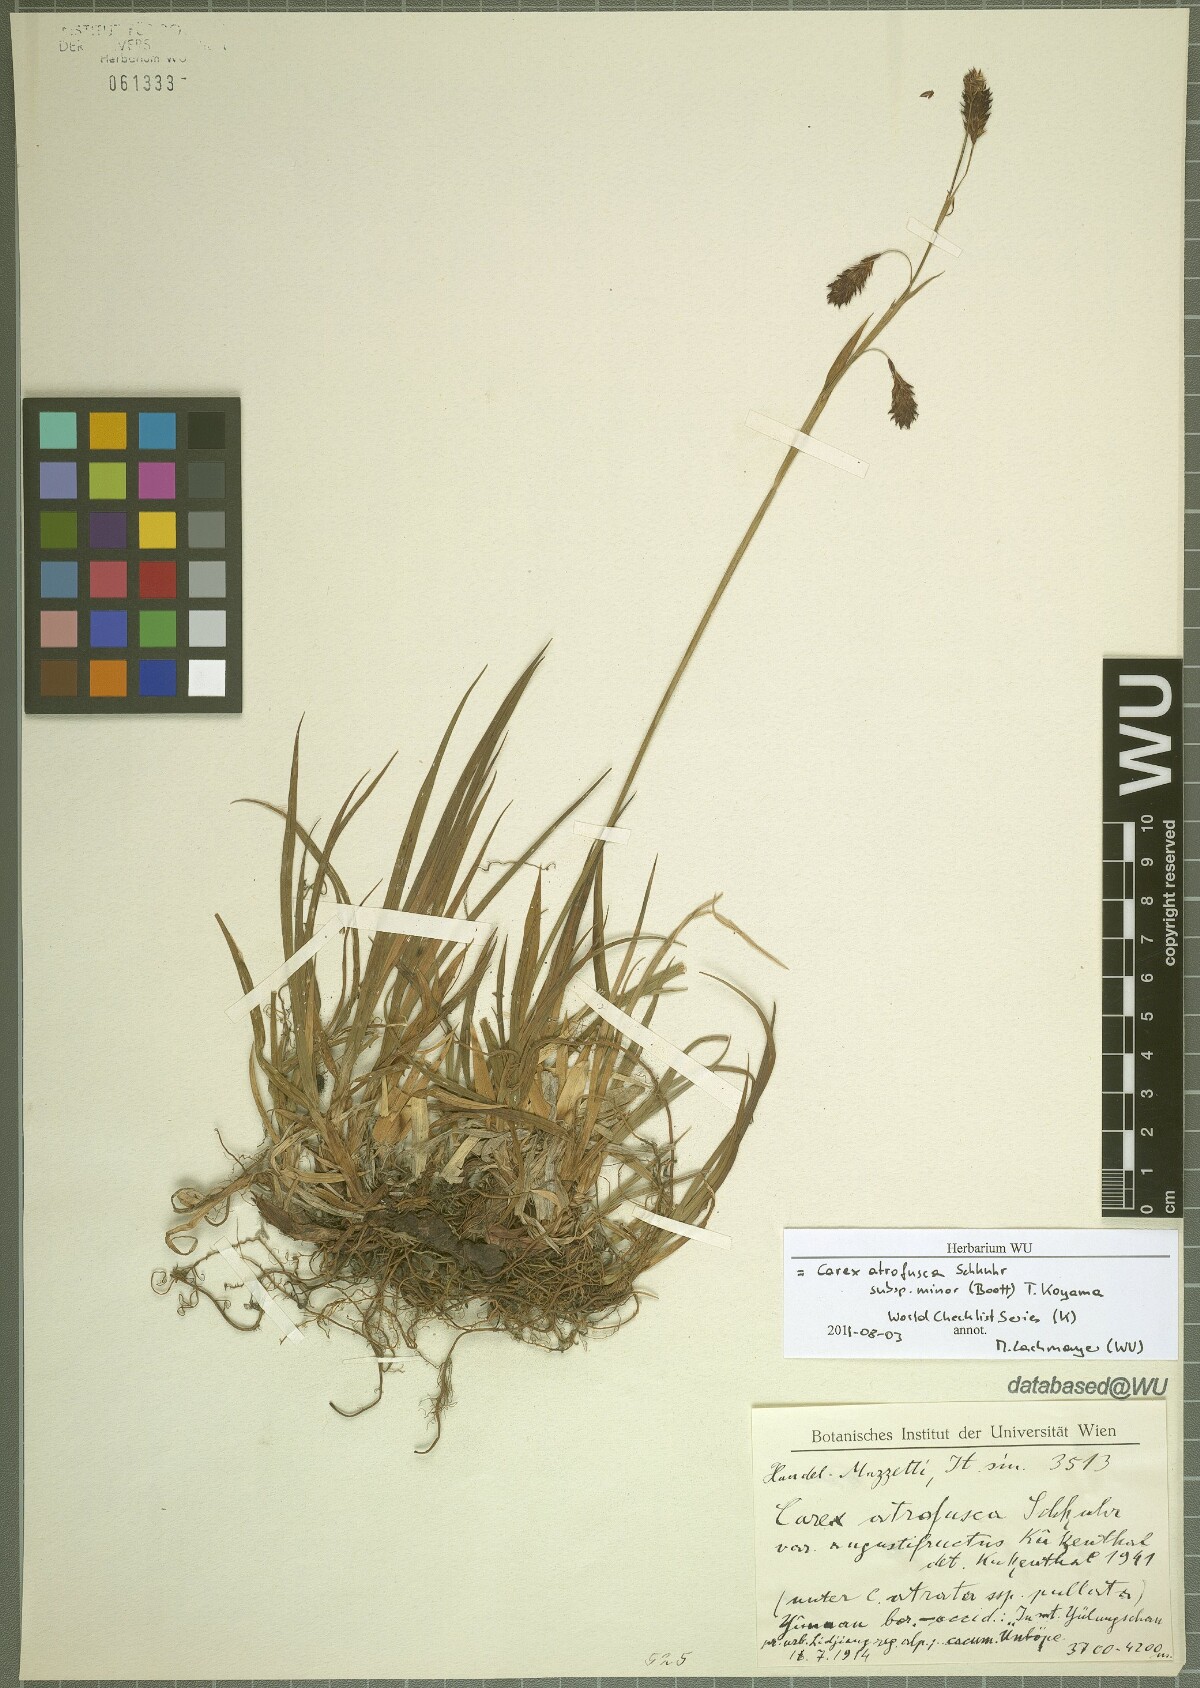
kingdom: Plantae
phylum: Tracheophyta
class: Liliopsida
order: Poales
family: Cyperaceae
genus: Carex
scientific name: Carex atrofusca
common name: Scorched alpine-sedge
